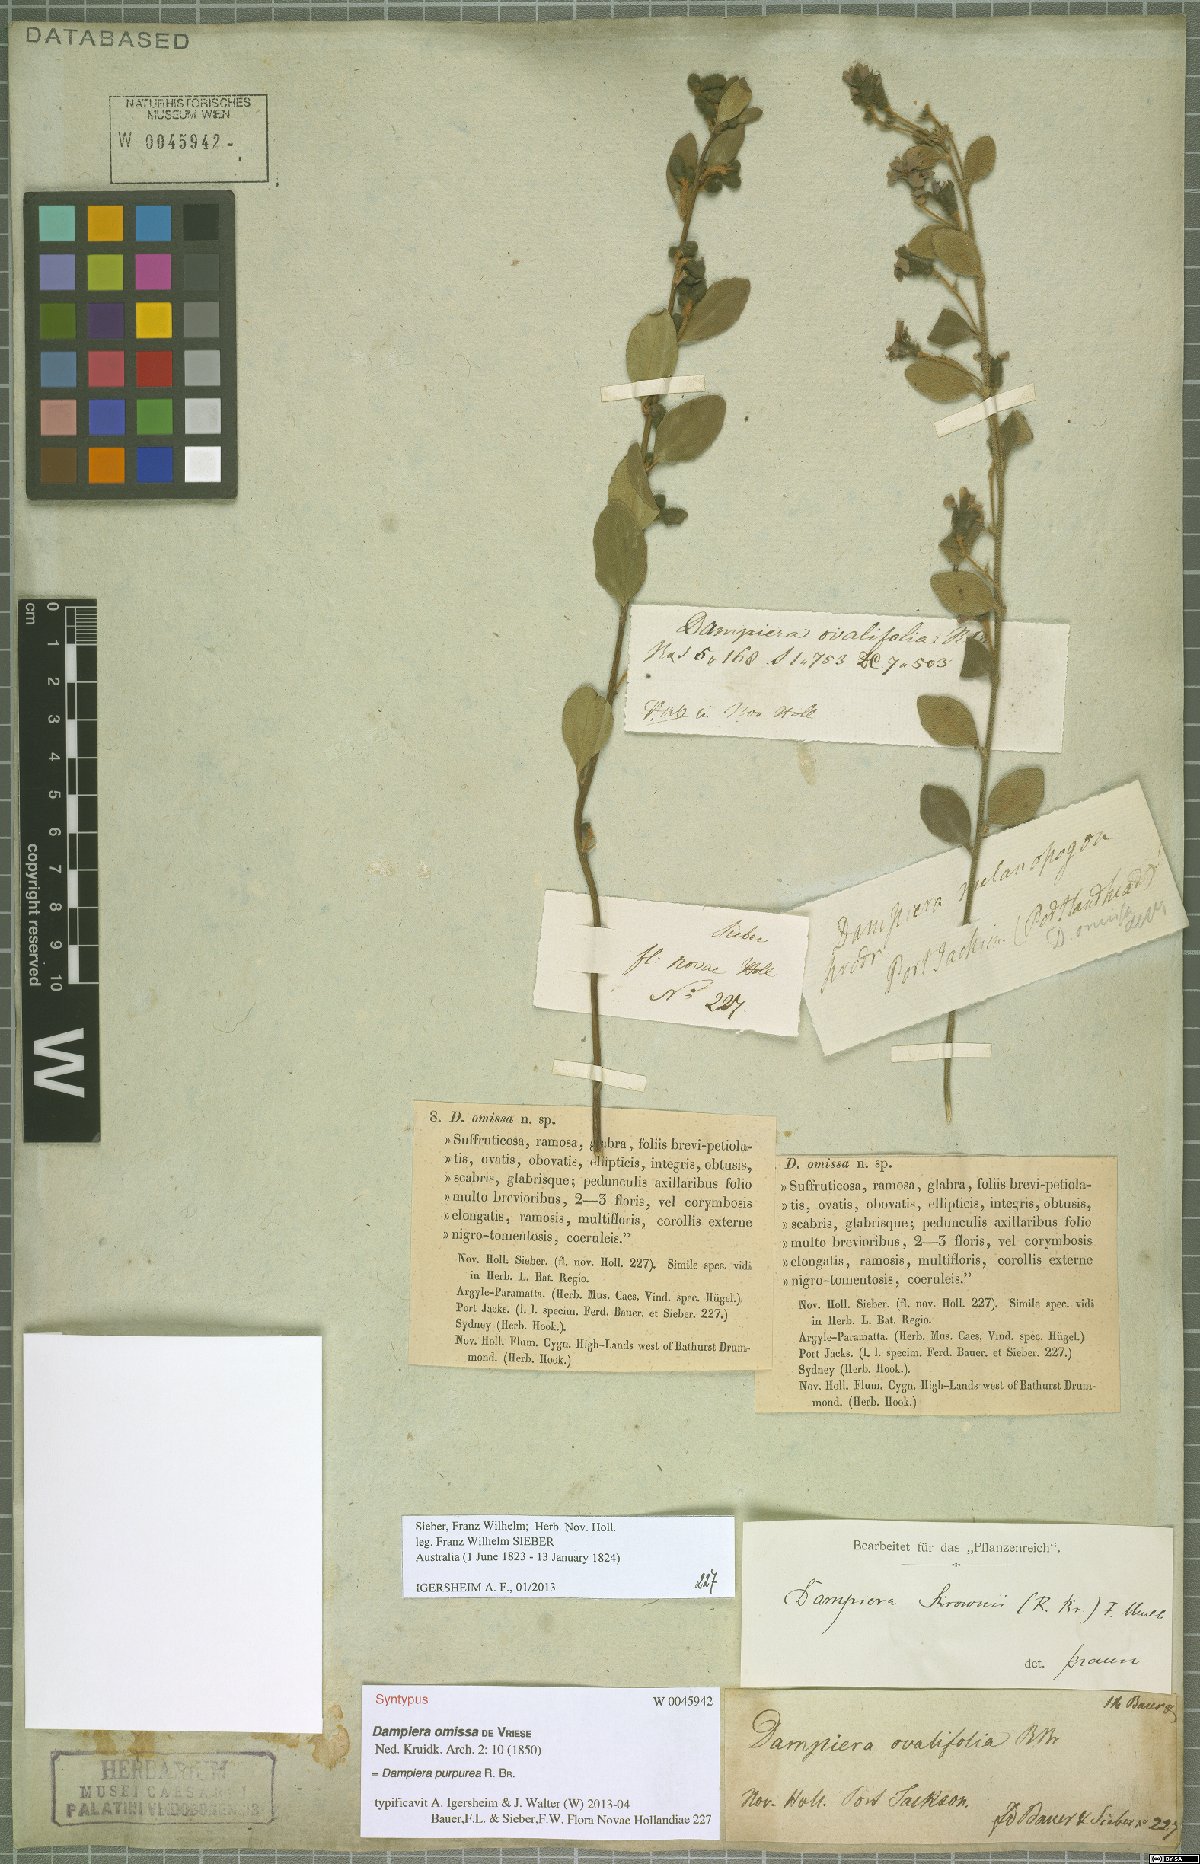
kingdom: Plantae
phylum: Tracheophyta
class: Magnoliopsida
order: Asterales
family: Goodeniaceae
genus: Dampiera
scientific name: Dampiera purpurea
